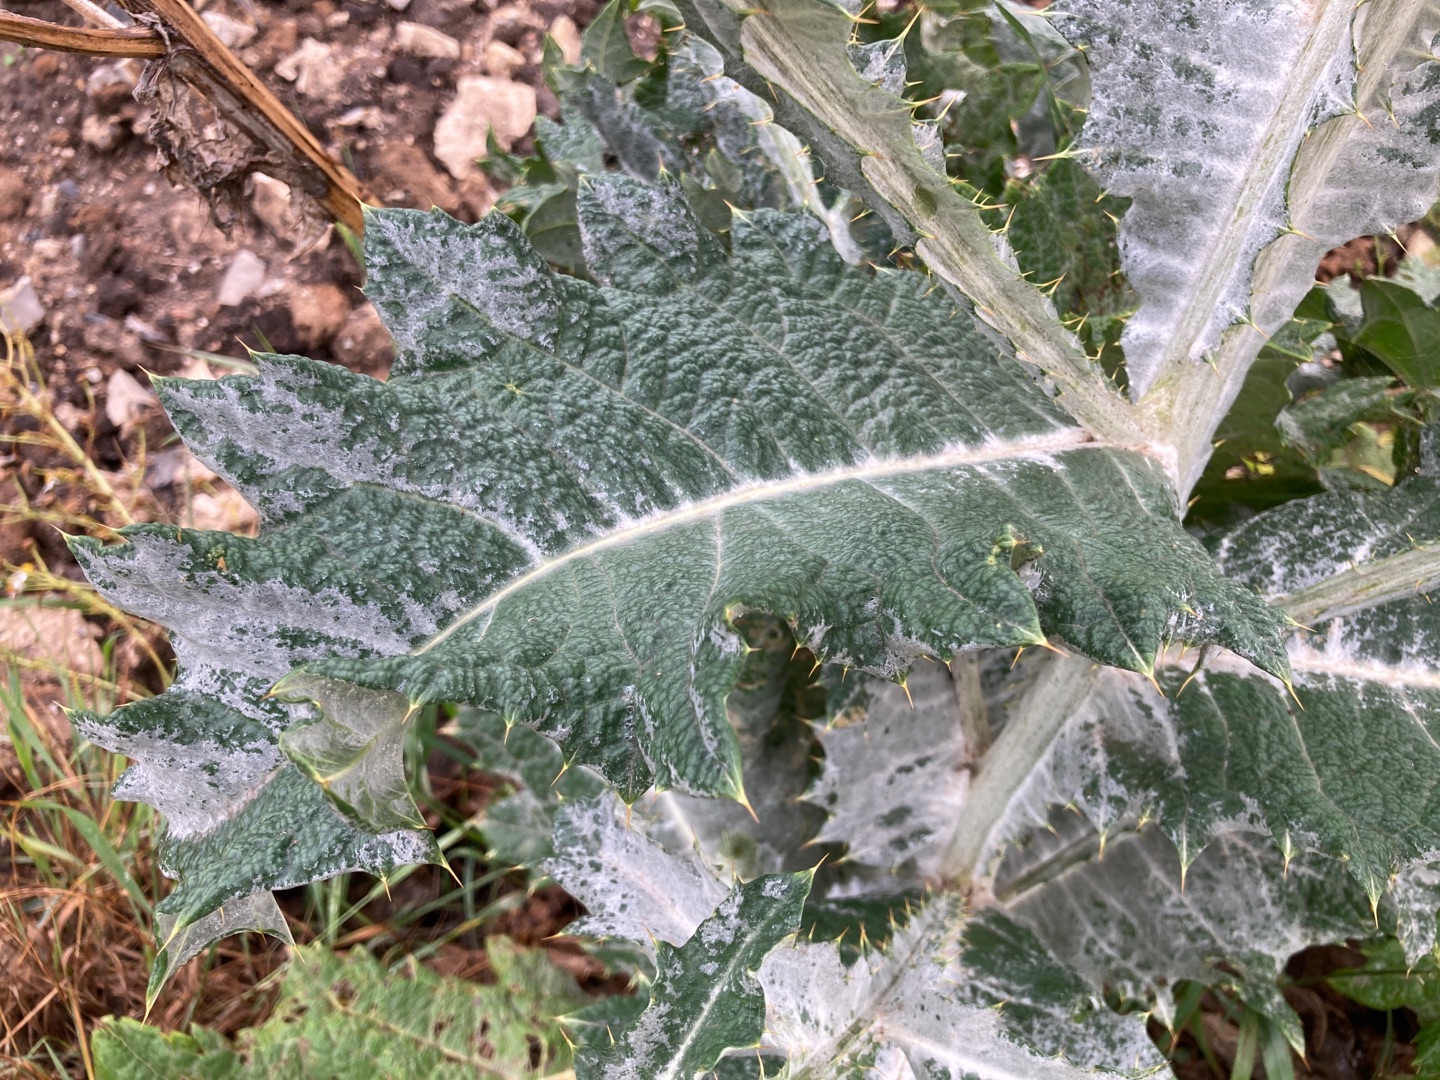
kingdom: Plantae
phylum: Tracheophyta
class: Magnoliopsida
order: Asterales
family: Asteraceae
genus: Onopordum
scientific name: Onopordum acanthium
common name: Æselfoder
